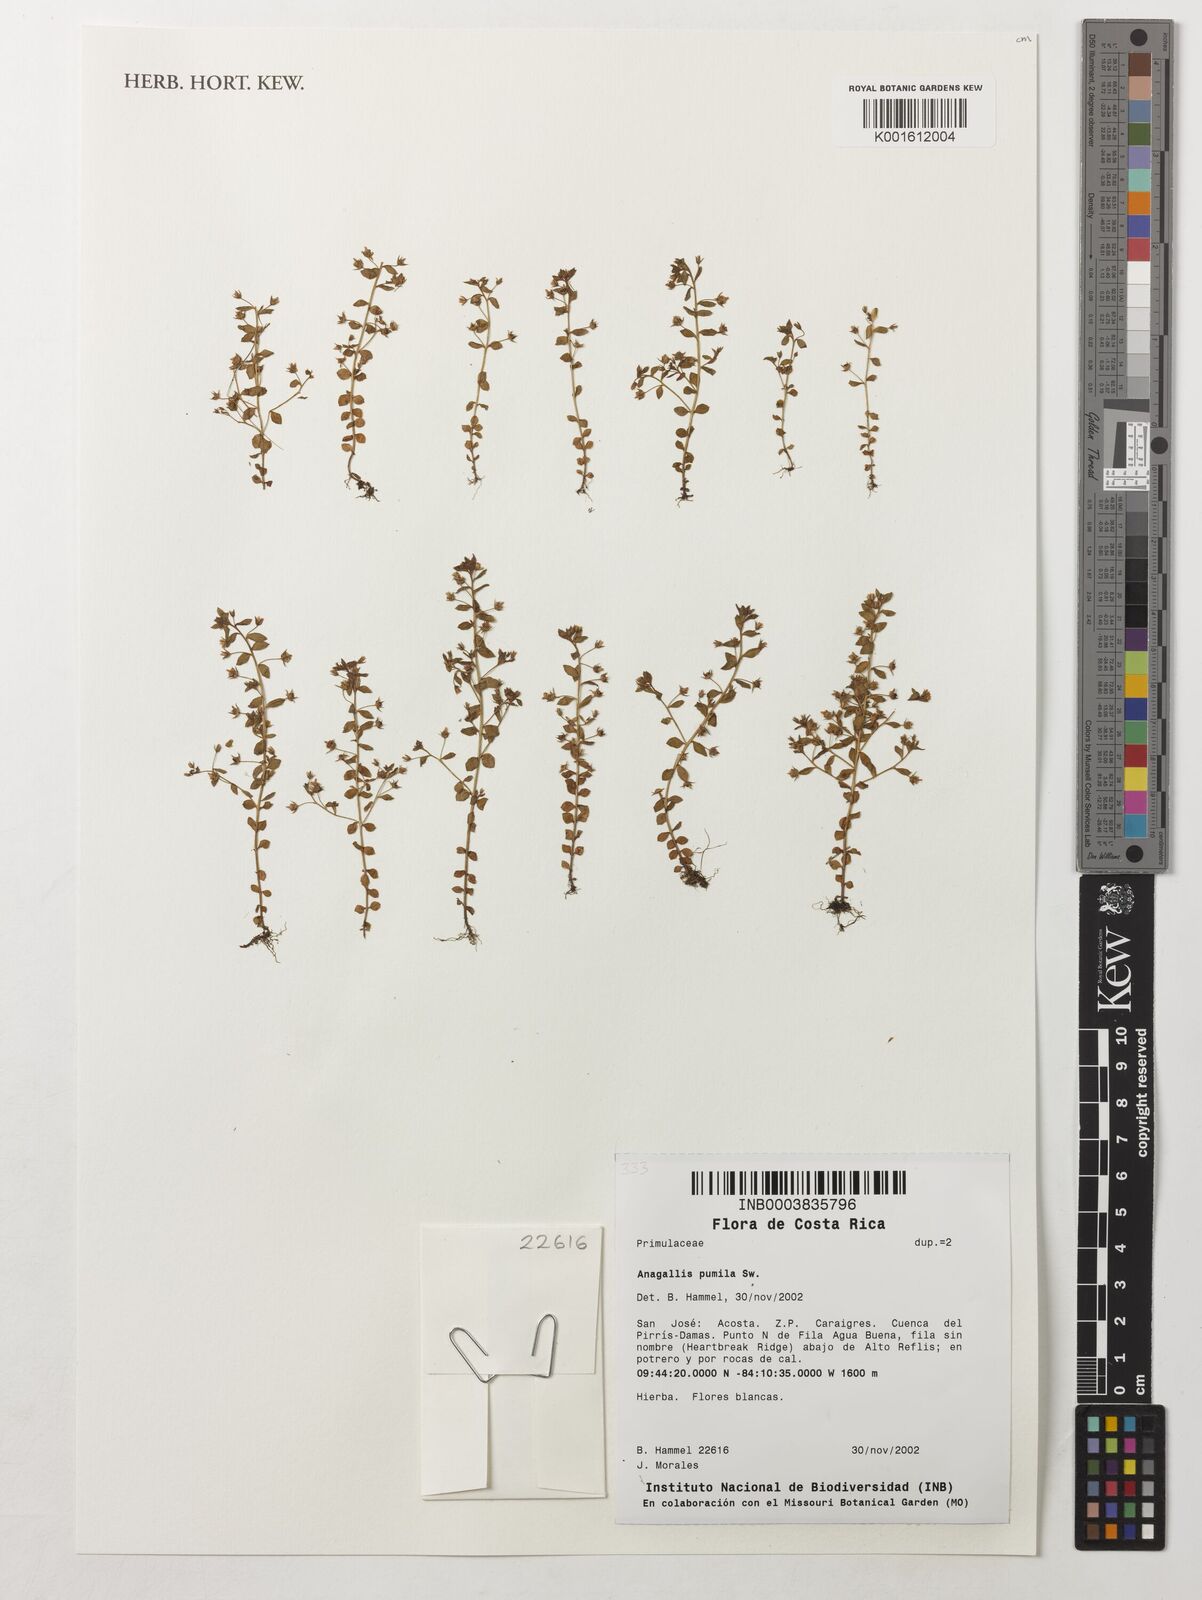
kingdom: Plantae
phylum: Tracheophyta
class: Magnoliopsida
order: Ericales
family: Primulaceae
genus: Lysimachia
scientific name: Lysimachia ovalis
